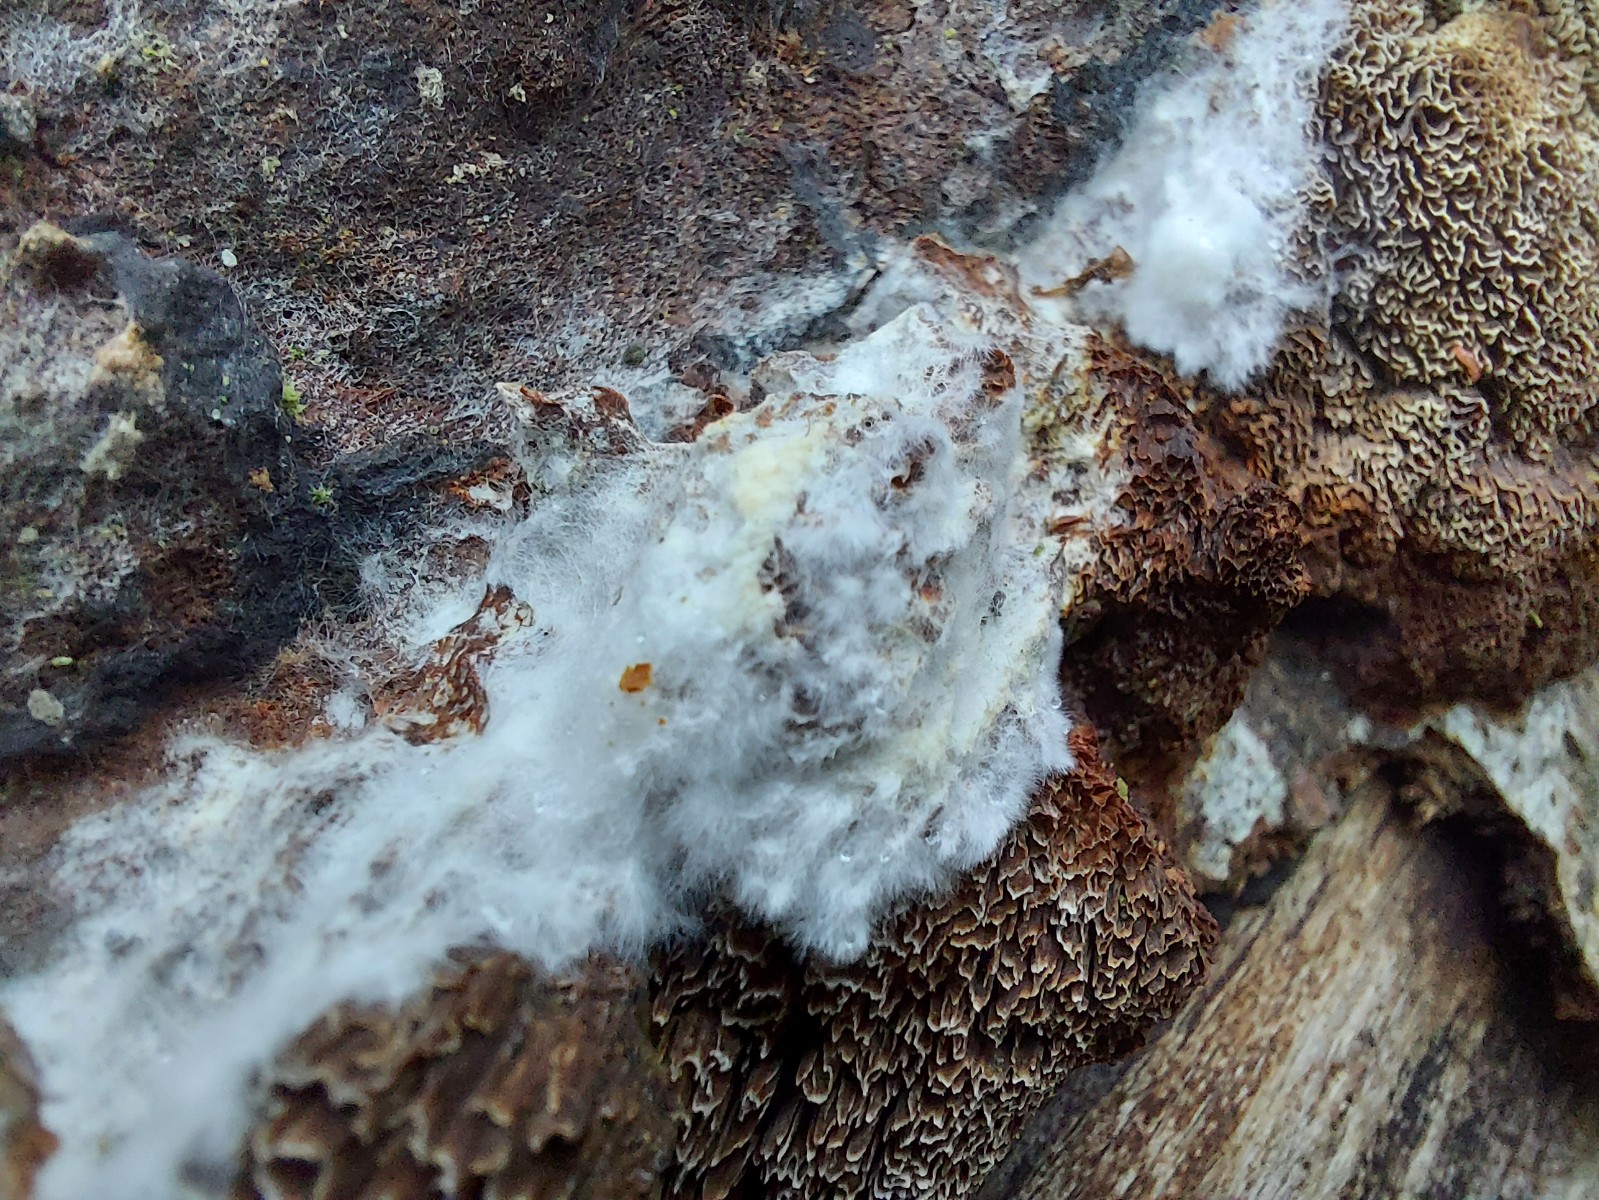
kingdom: Fungi
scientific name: Fungi
